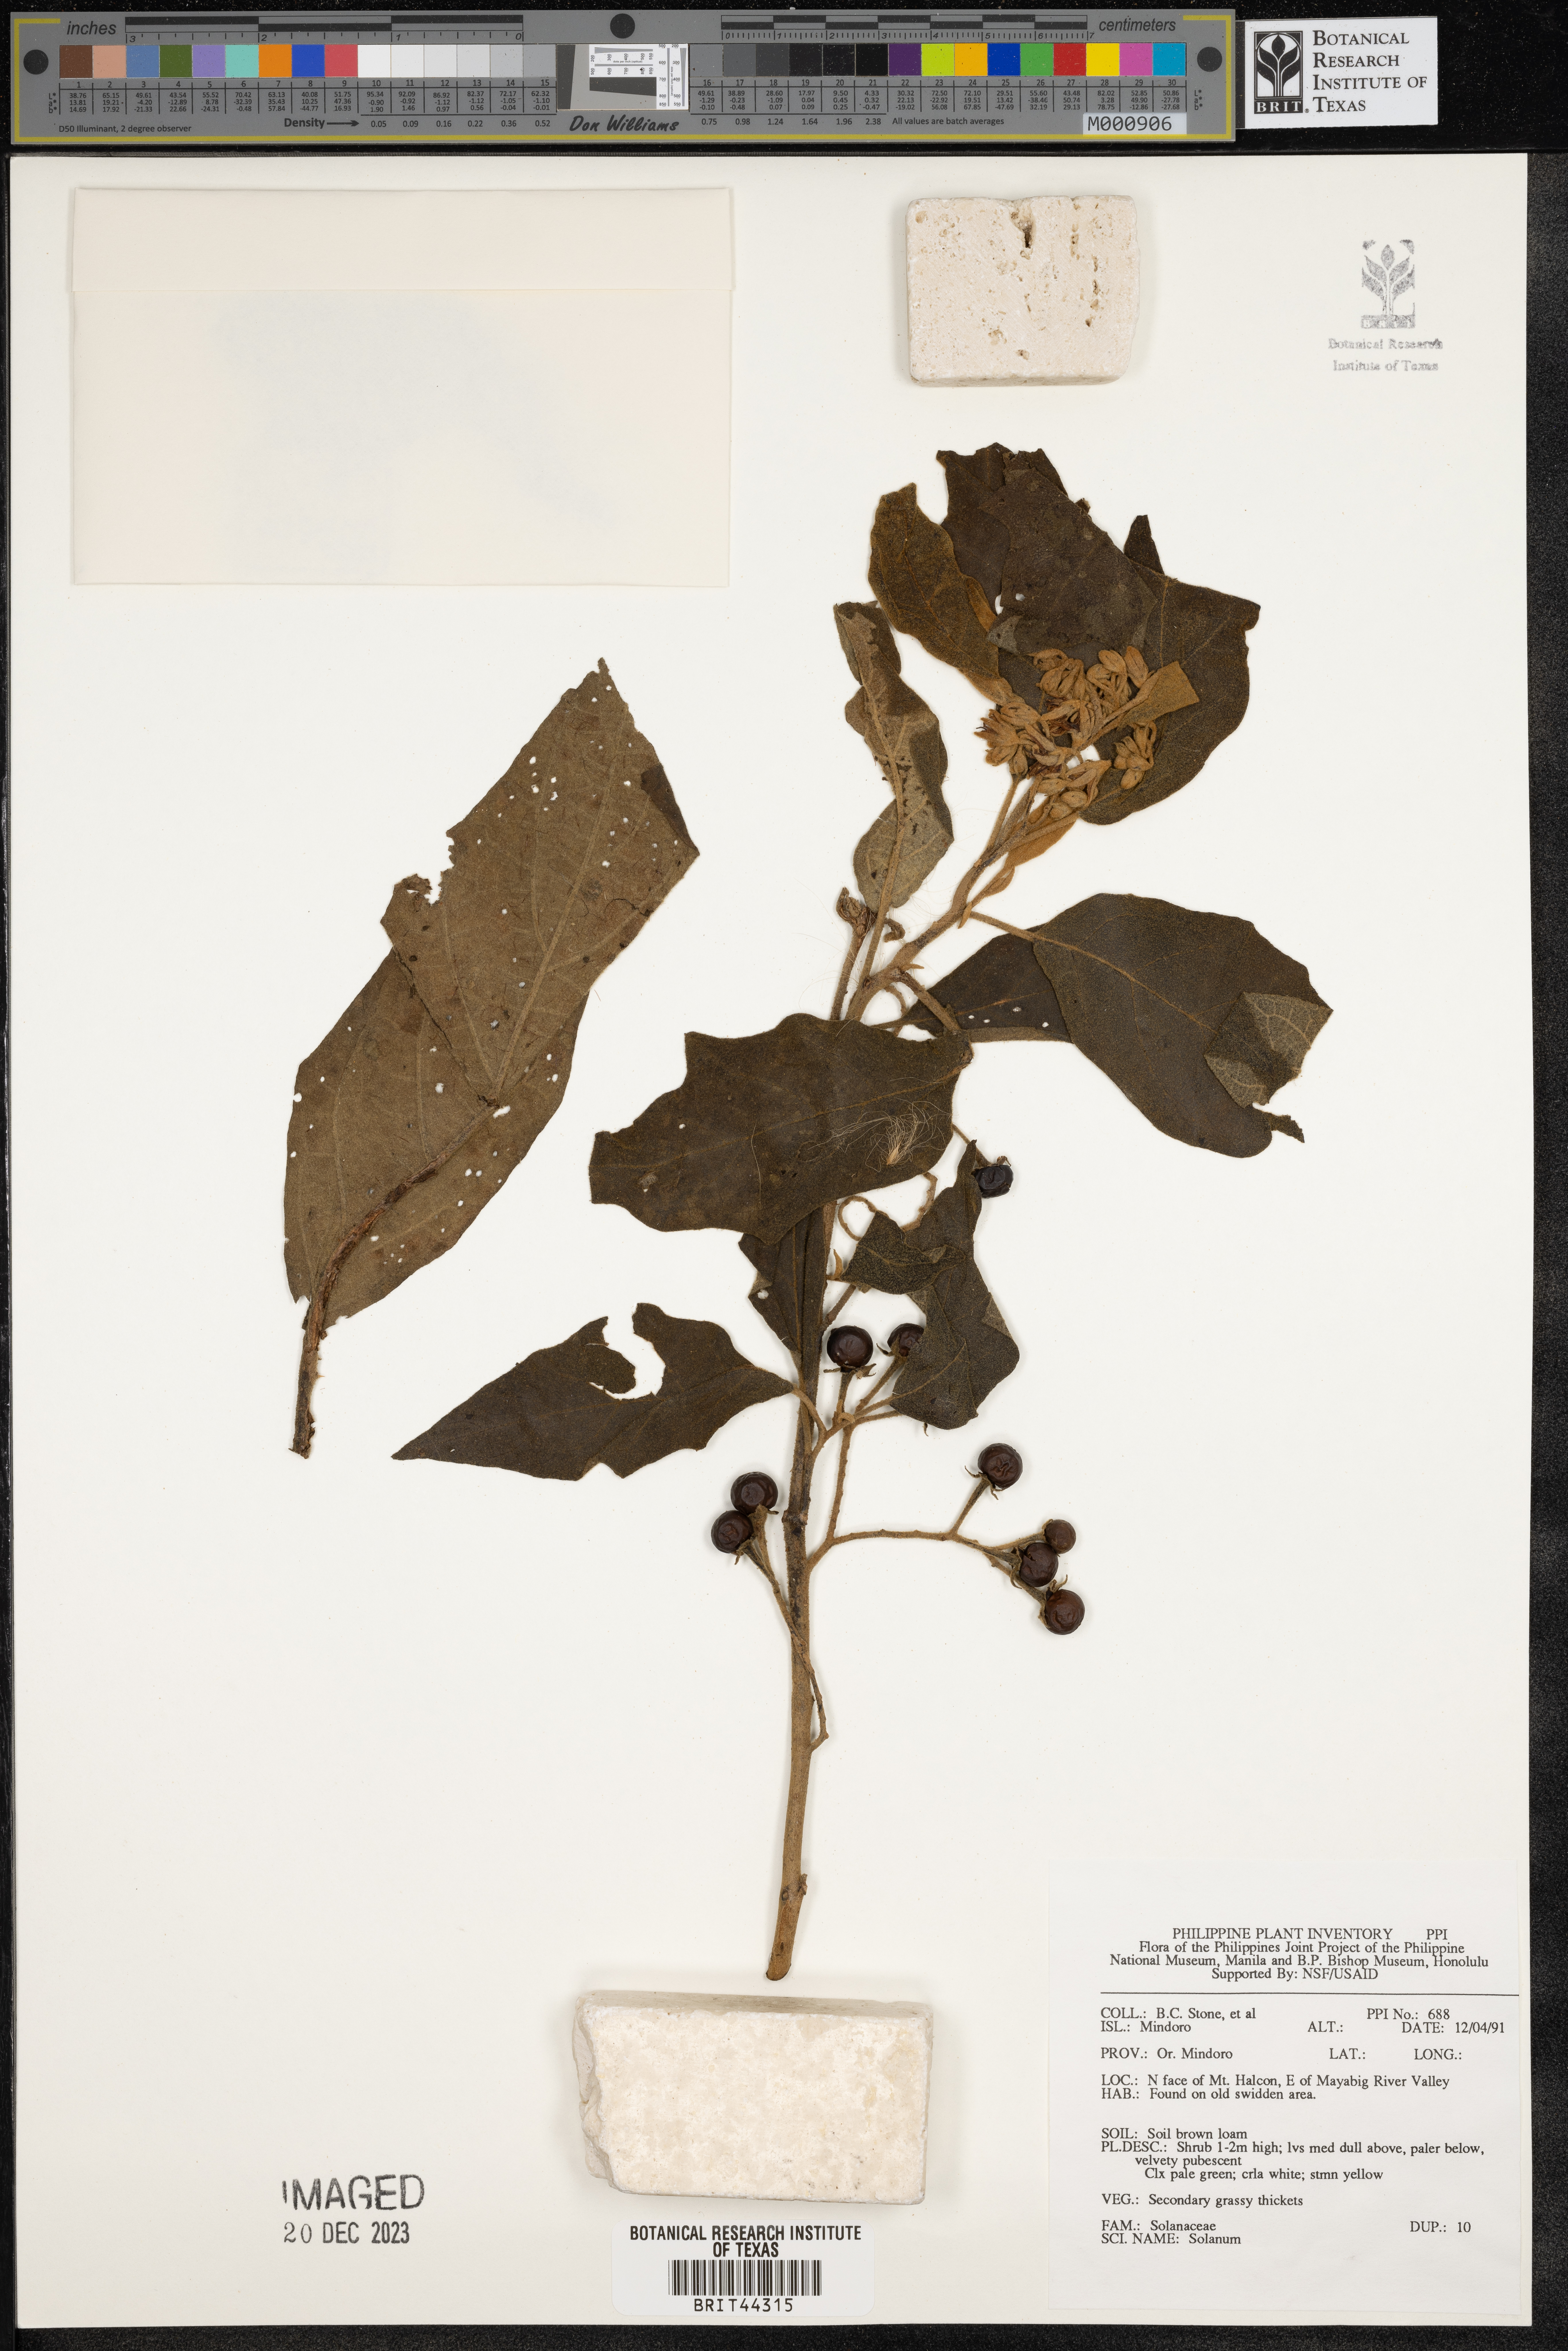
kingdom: Plantae
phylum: Tracheophyta
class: Magnoliopsida
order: Solanales
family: Solanaceae
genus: Solanum
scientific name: Solanum
